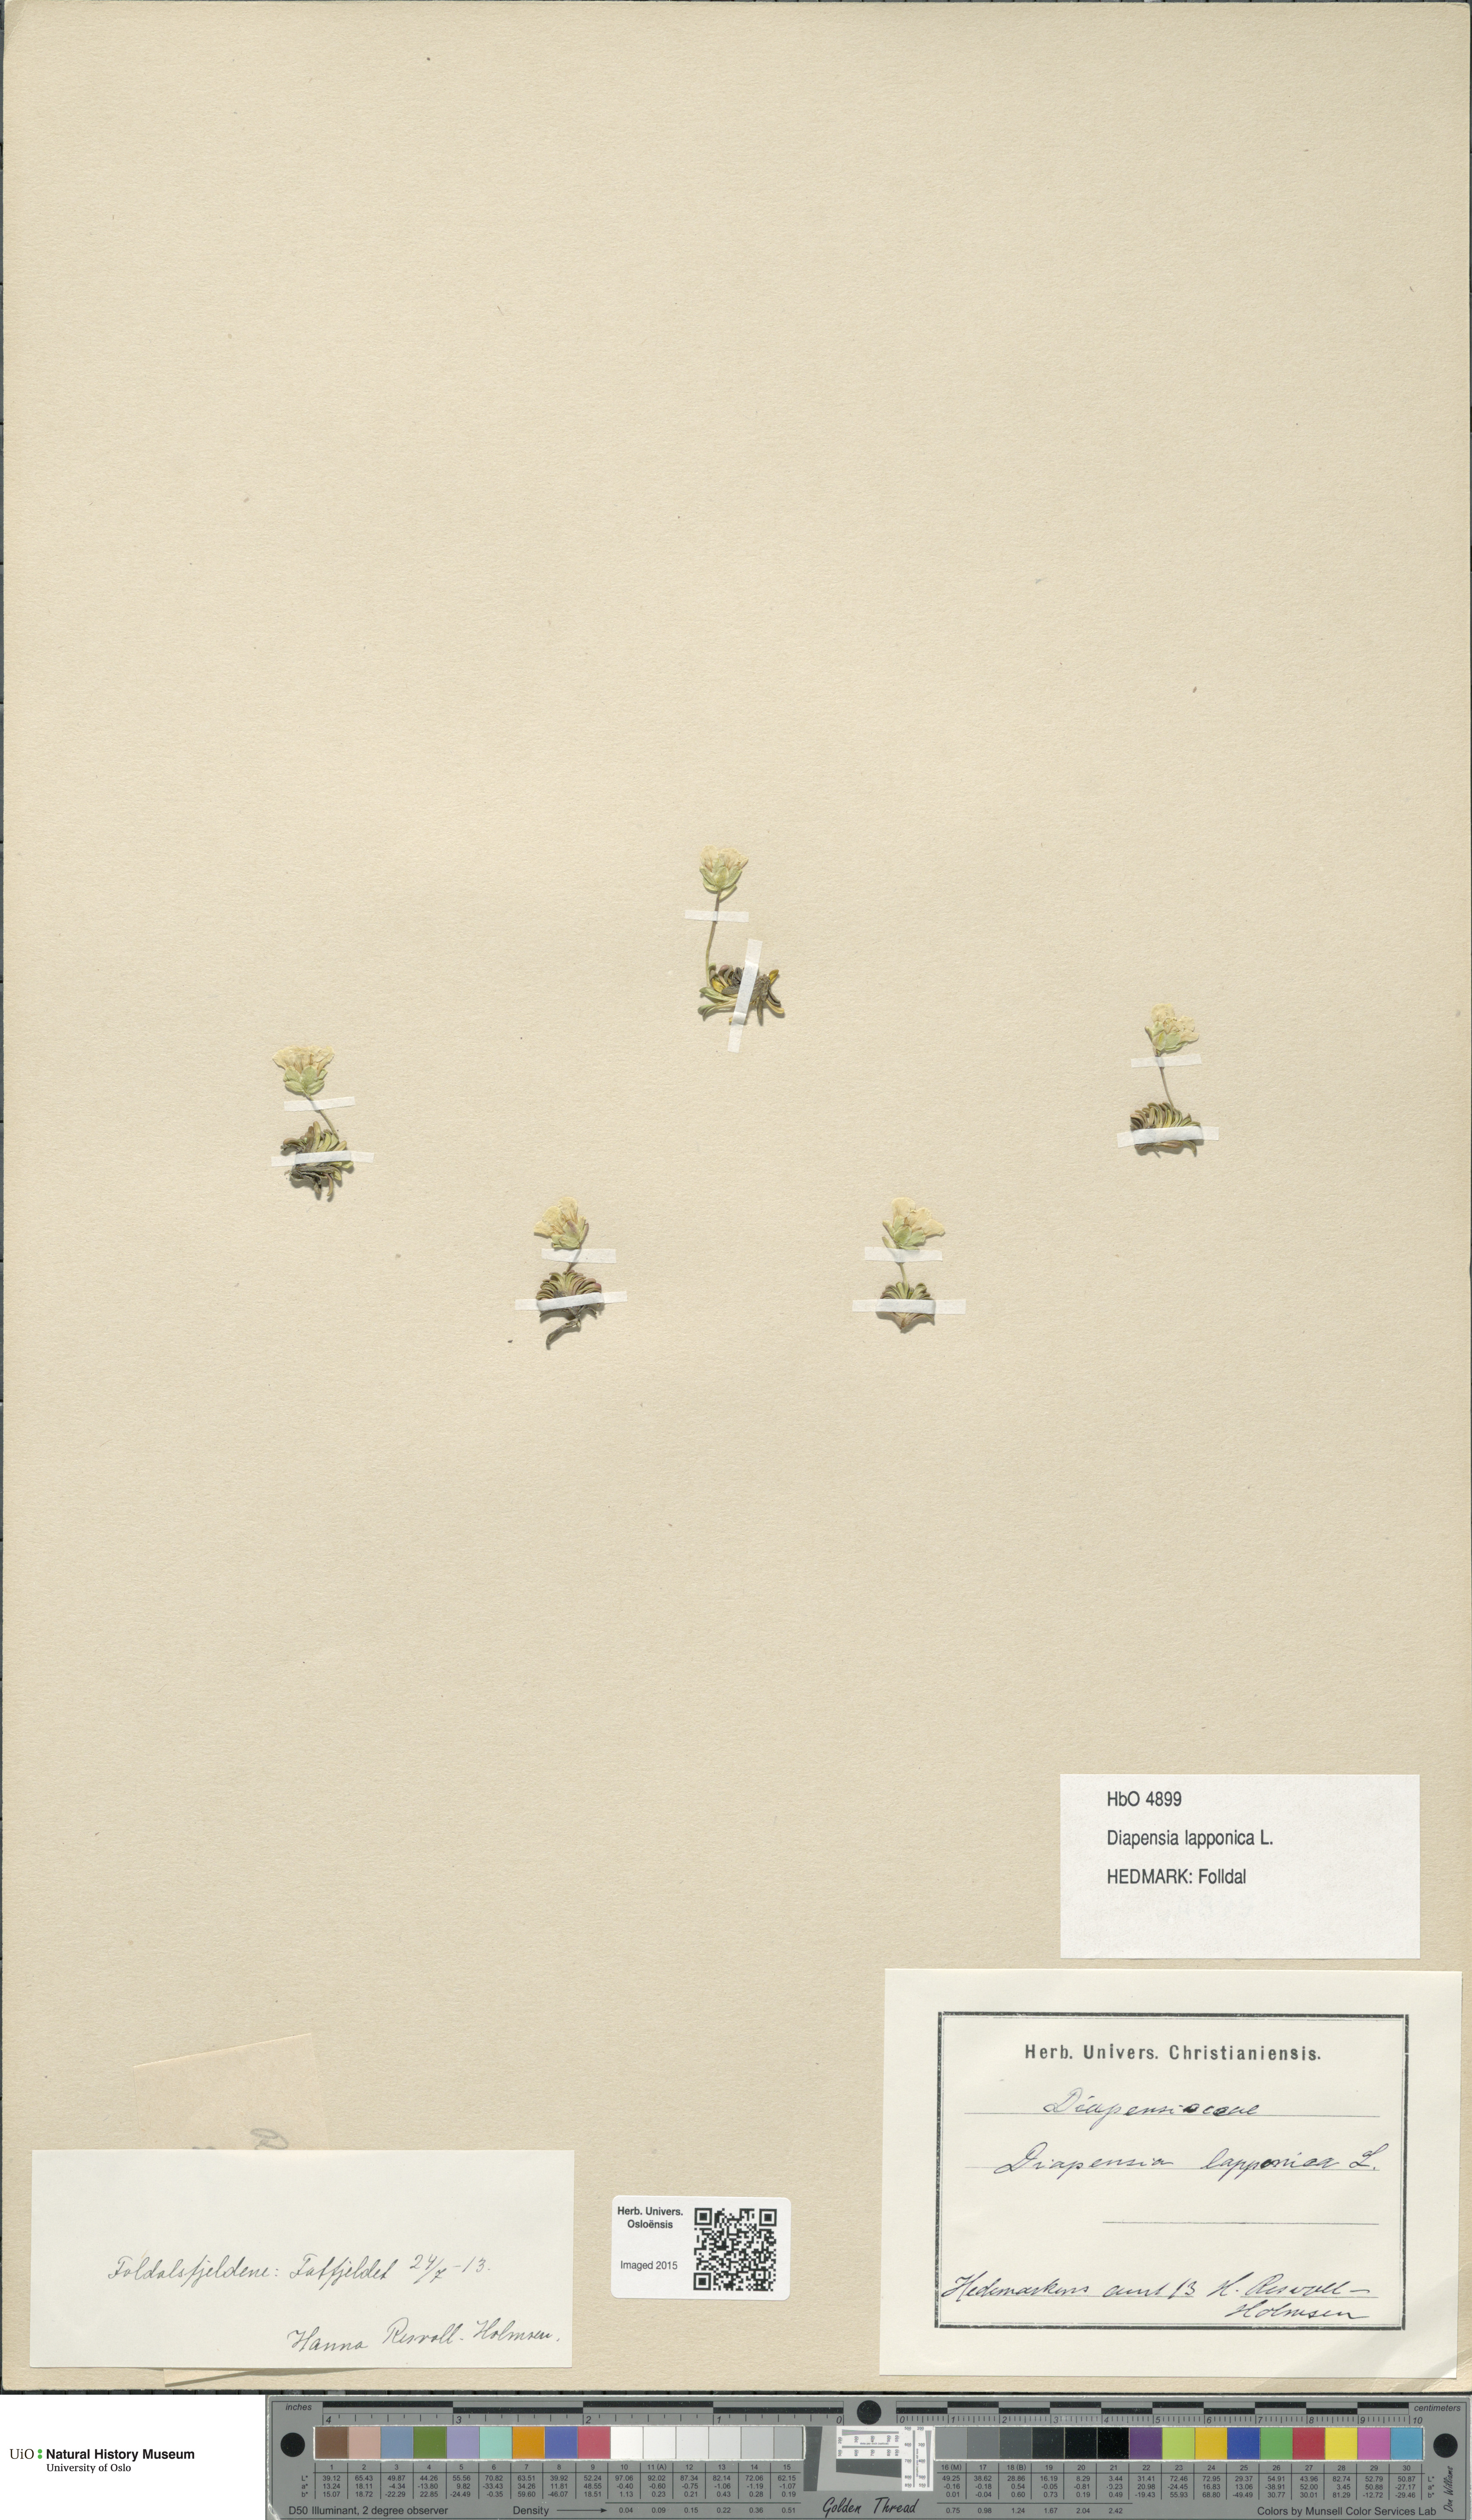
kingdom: Plantae
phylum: Tracheophyta
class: Magnoliopsida
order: Ericales
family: Diapensiaceae
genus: Diapensia
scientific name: Diapensia lapponica
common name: Diapensia
